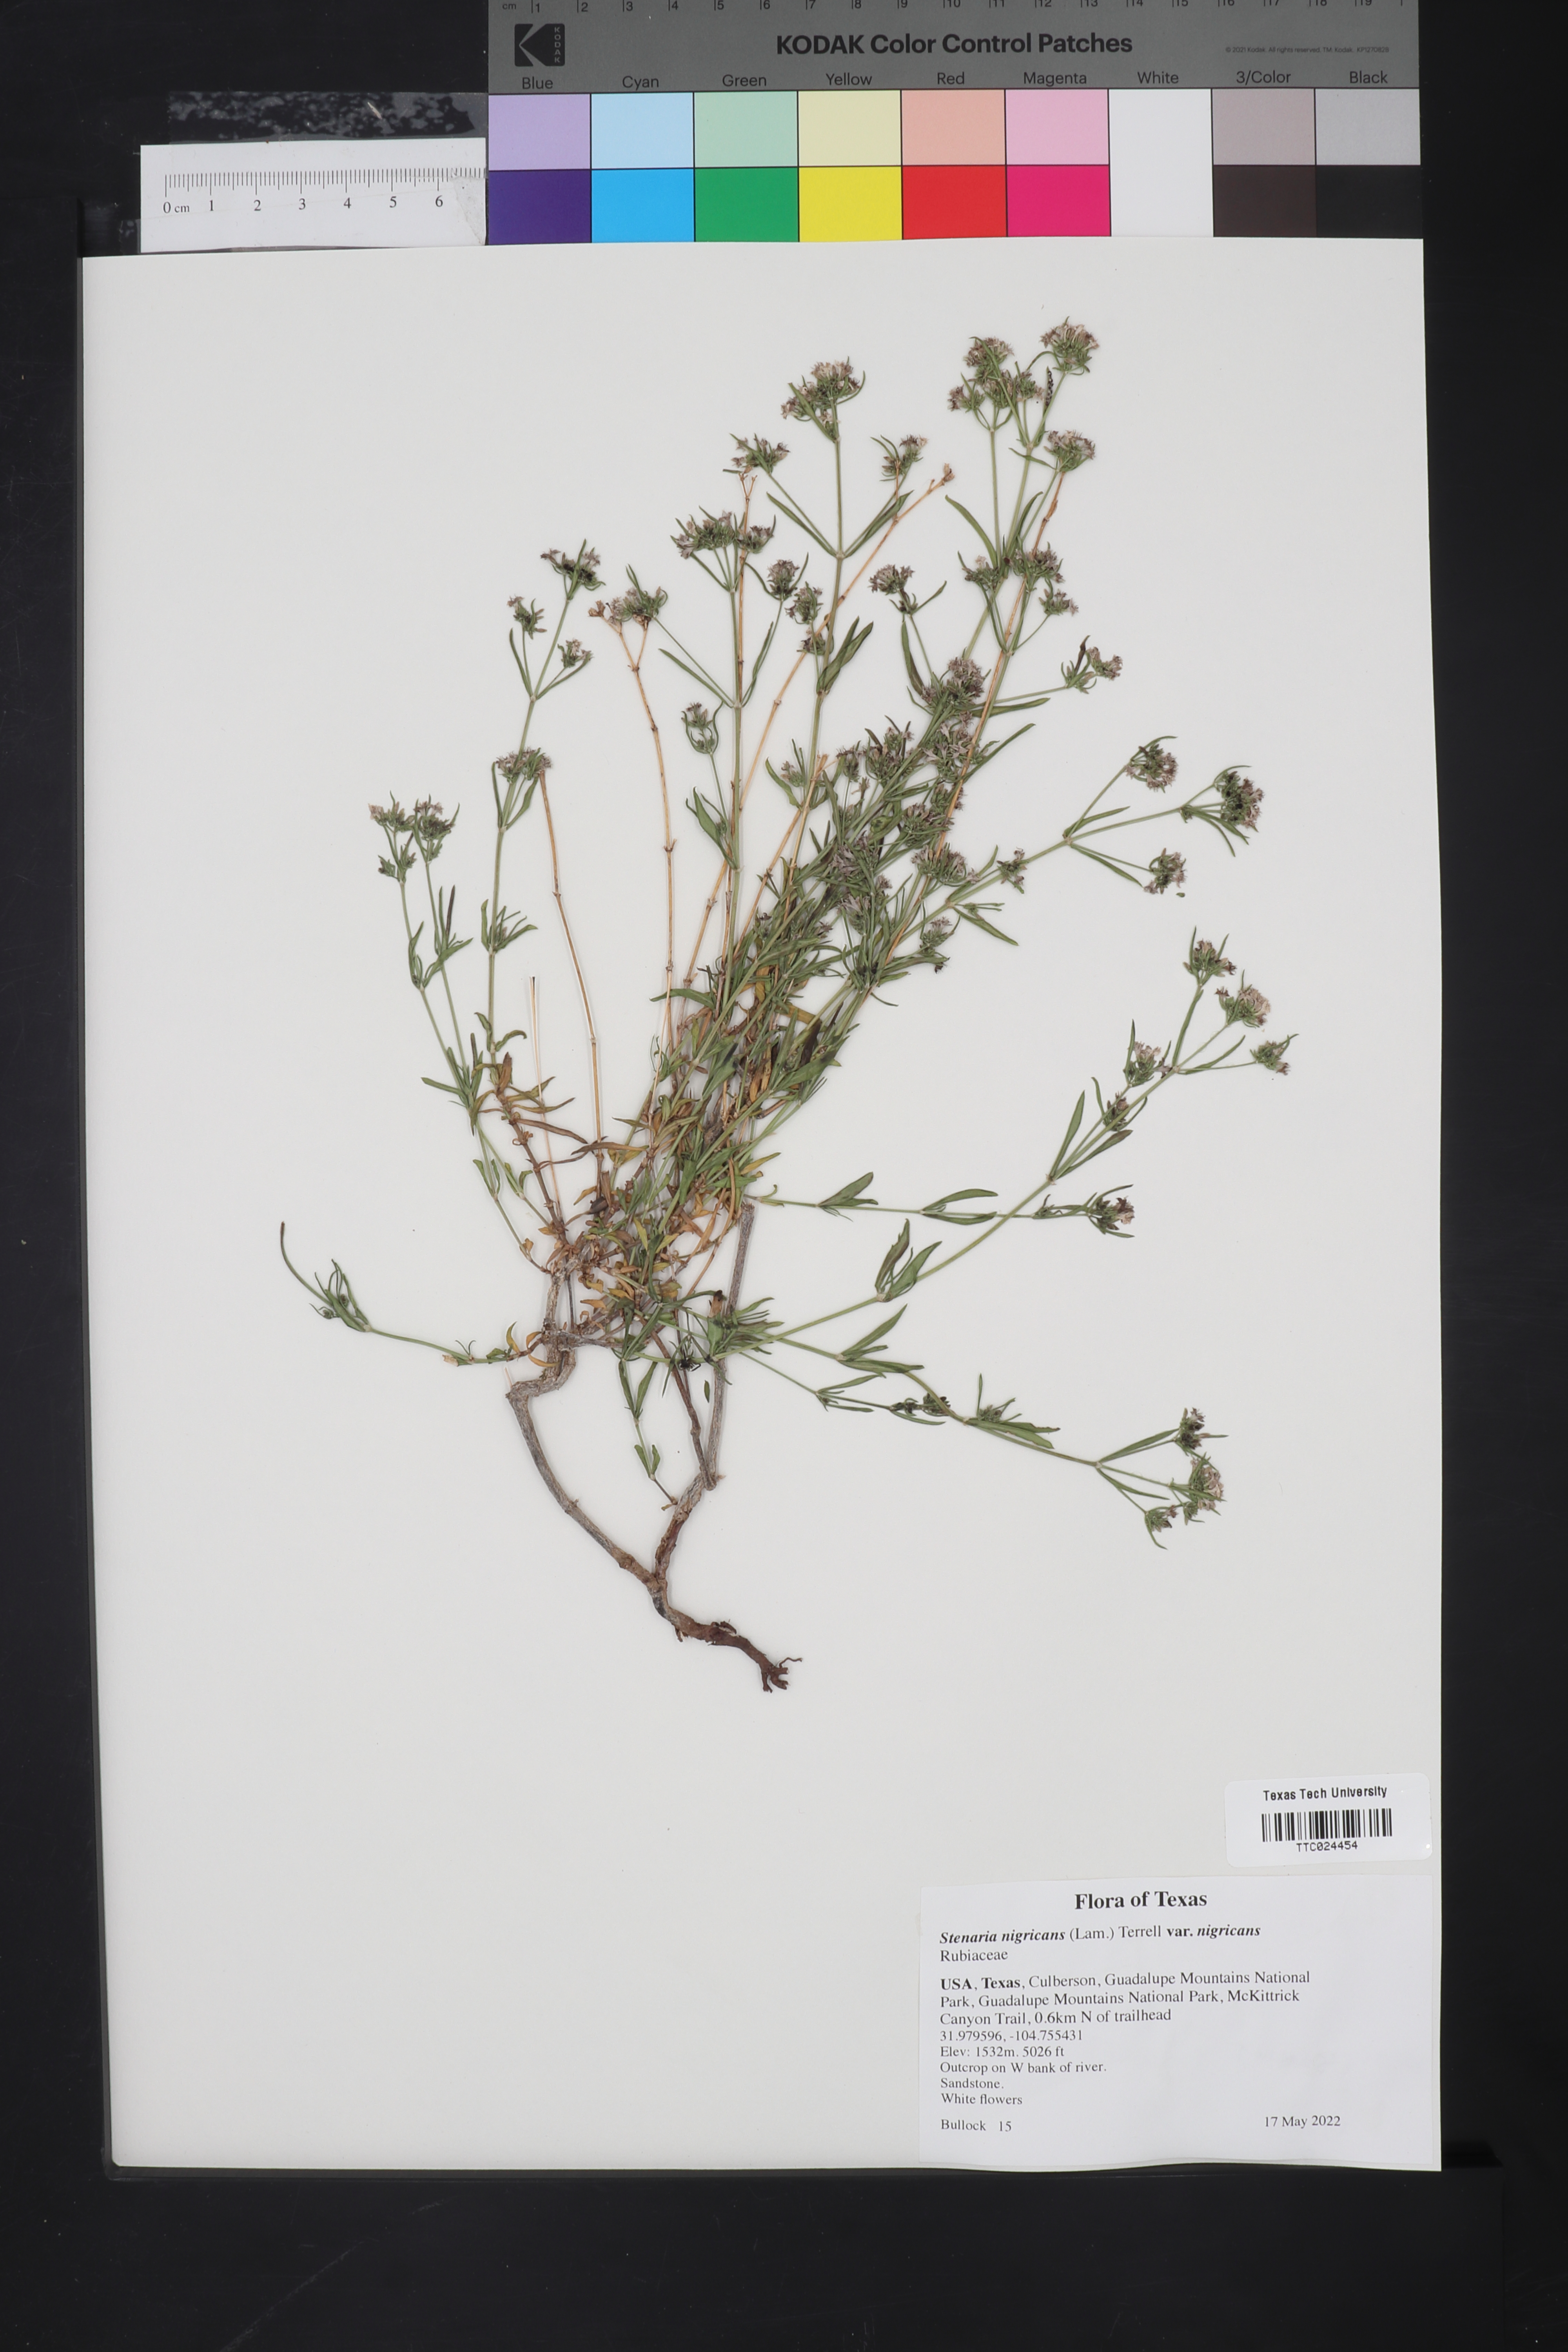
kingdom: Plantae
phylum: Tracheophyta
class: Magnoliopsida
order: Gentianales
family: Rubiaceae
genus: Stenaria
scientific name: Stenaria nigricans
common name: Diamondflowers
